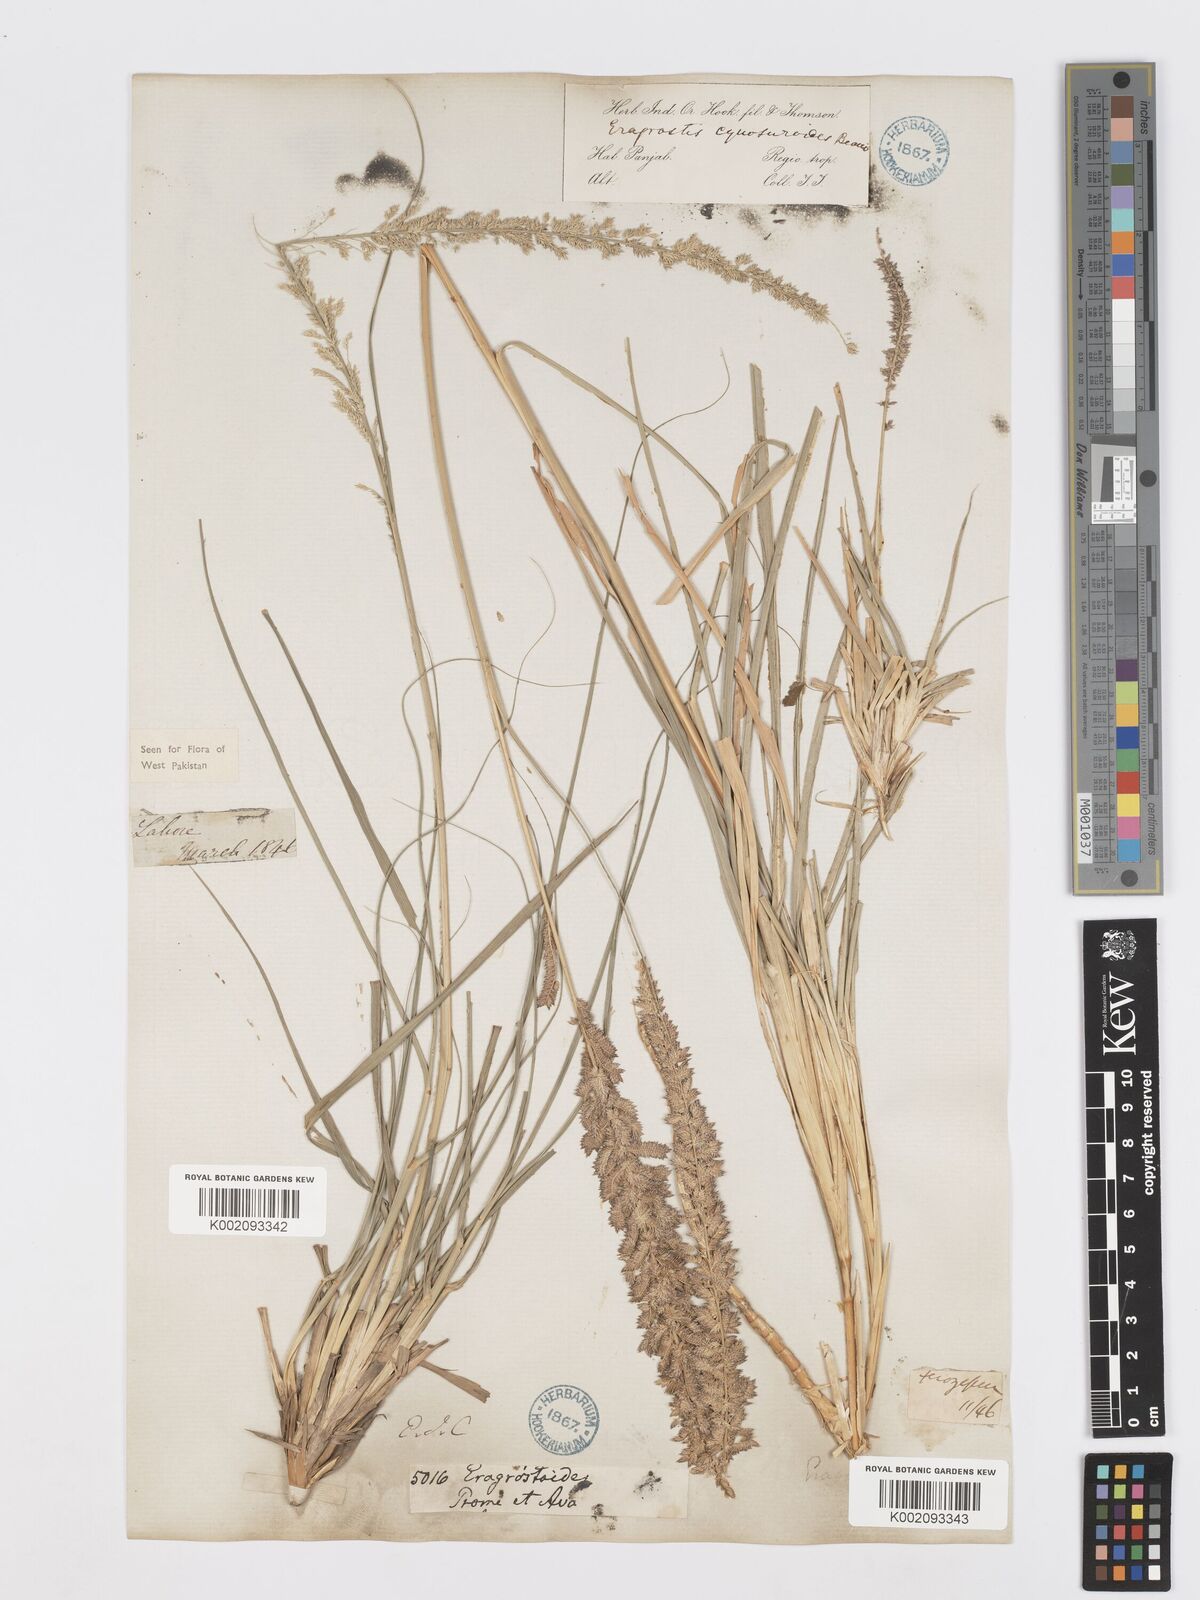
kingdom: Plantae
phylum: Tracheophyta
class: Liliopsida
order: Poales
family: Poaceae
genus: Desmostachya
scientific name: Desmostachya bipinnata
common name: Crowfoot grass
